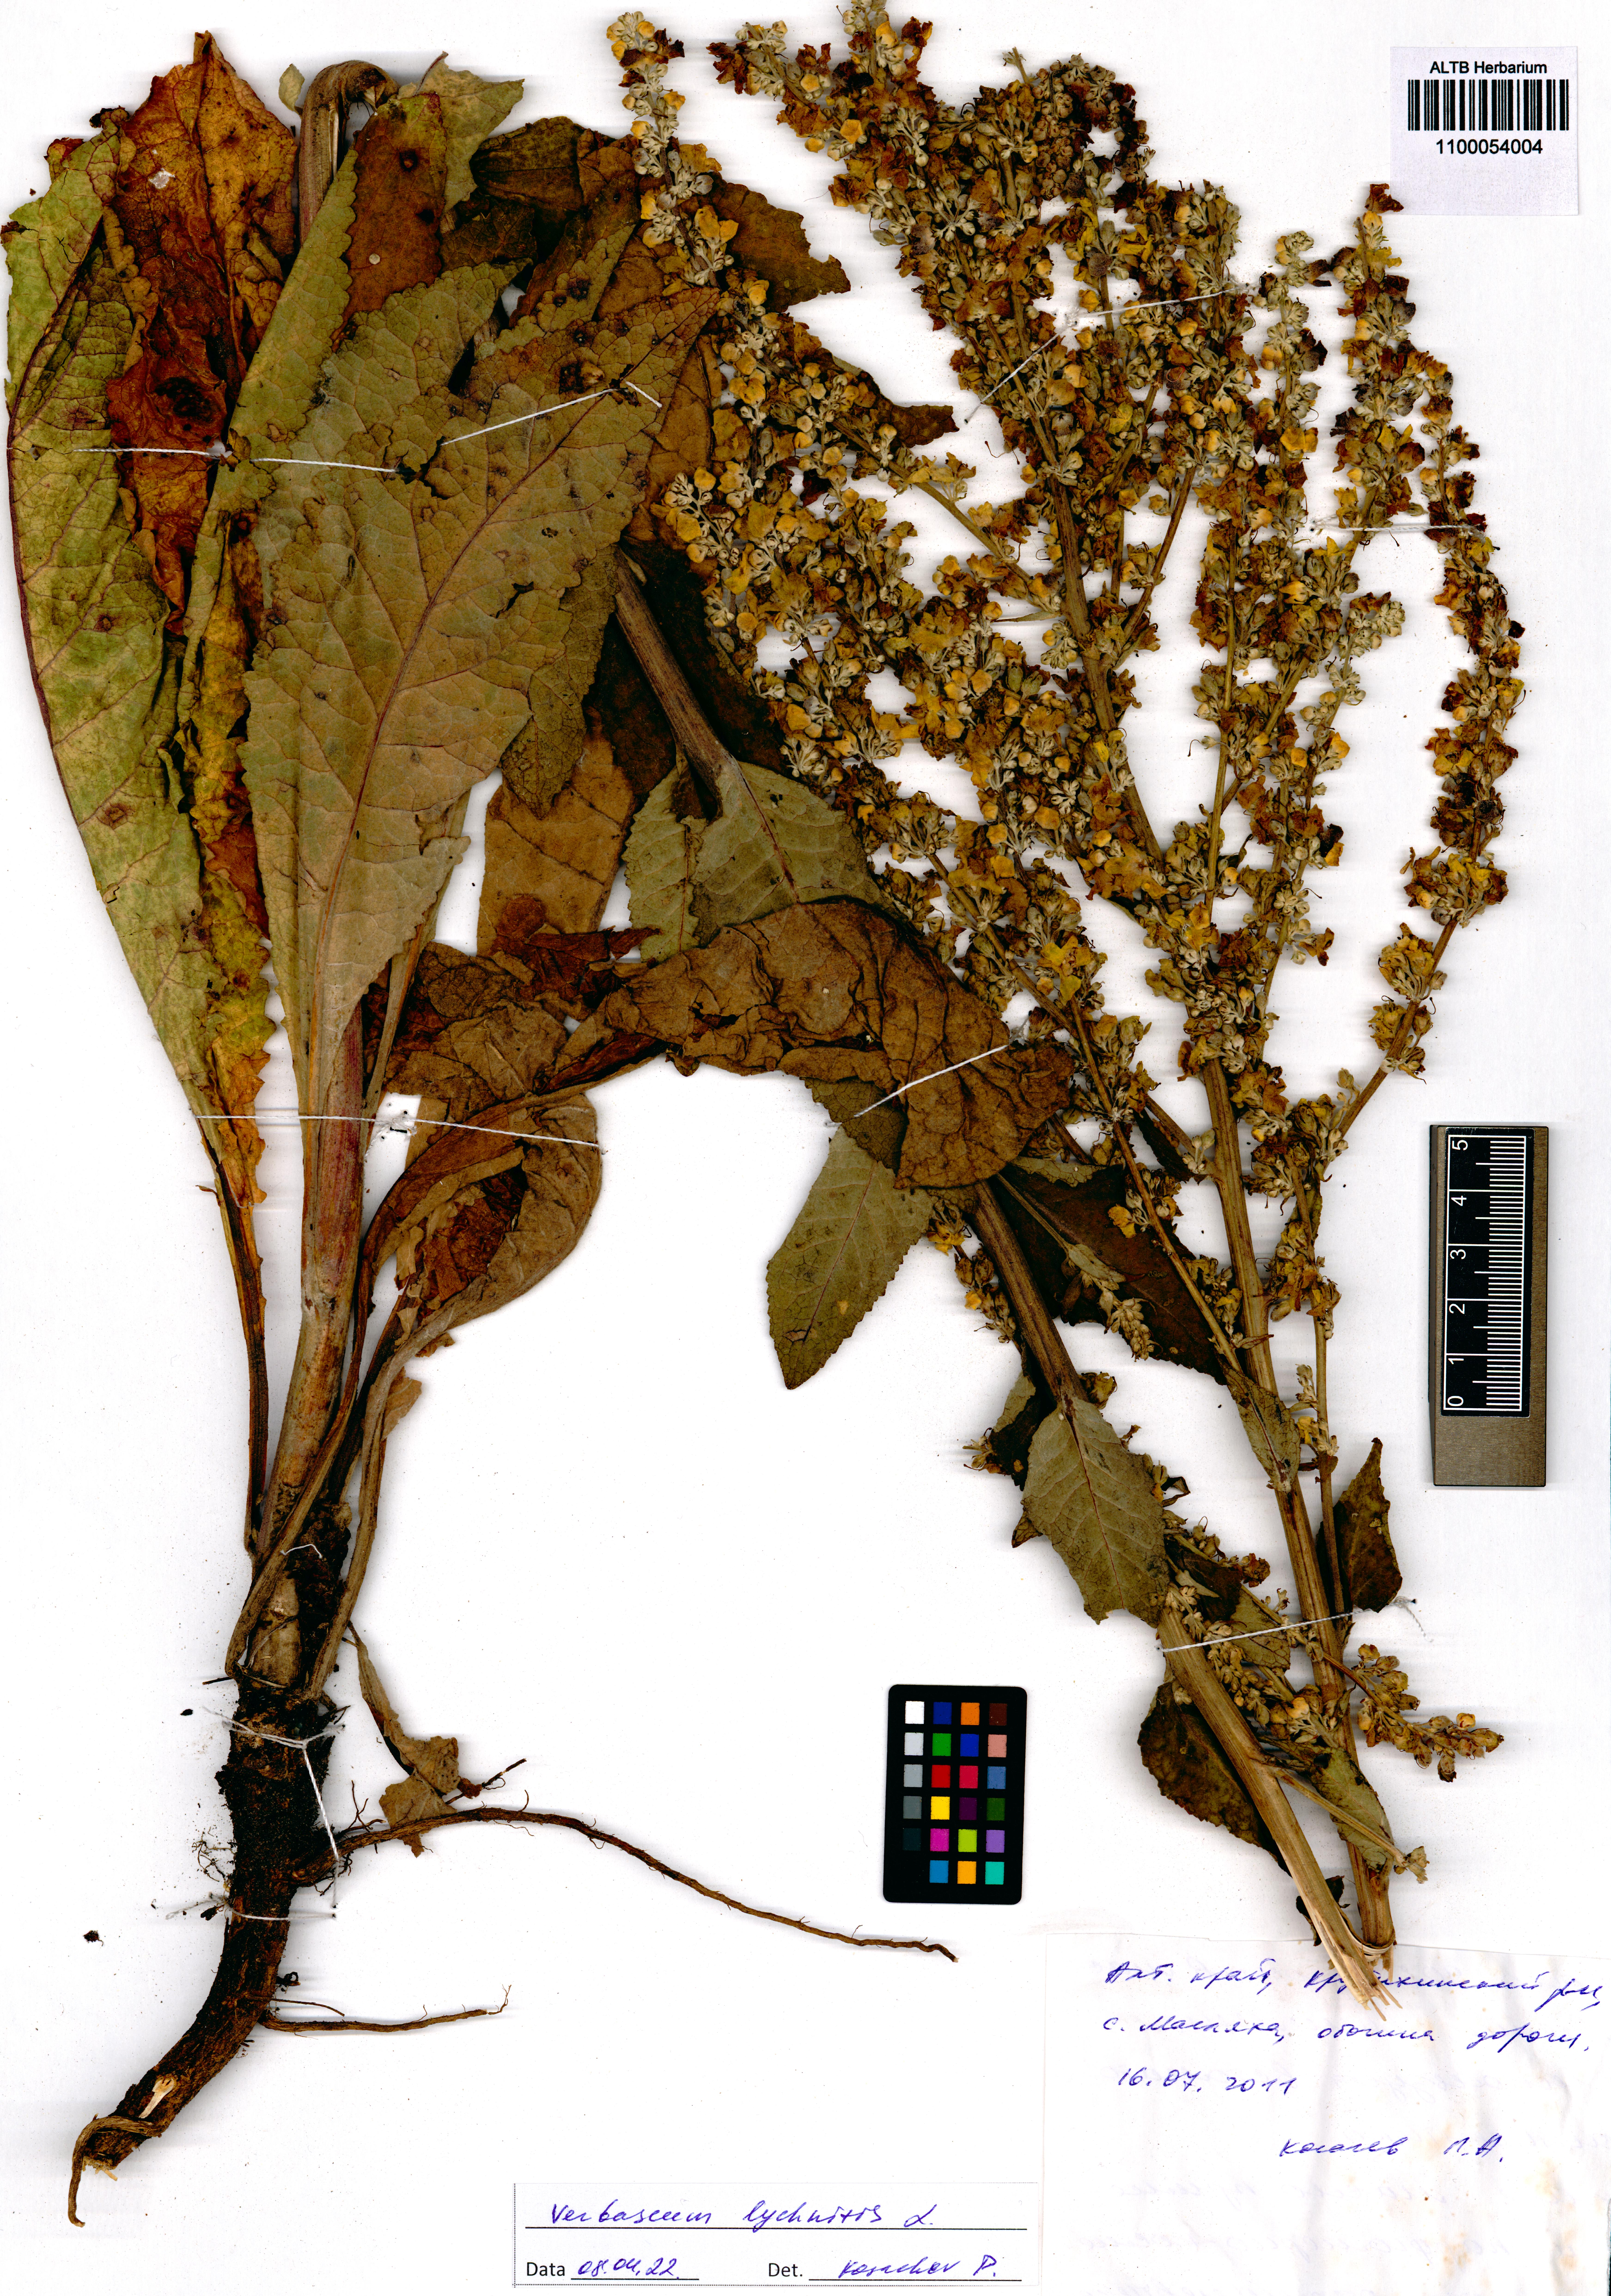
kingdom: Plantae
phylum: Tracheophyta
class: Magnoliopsida
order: Lamiales
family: Scrophulariaceae
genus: Verbascum
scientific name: Verbascum lychnitis
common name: White mullein
